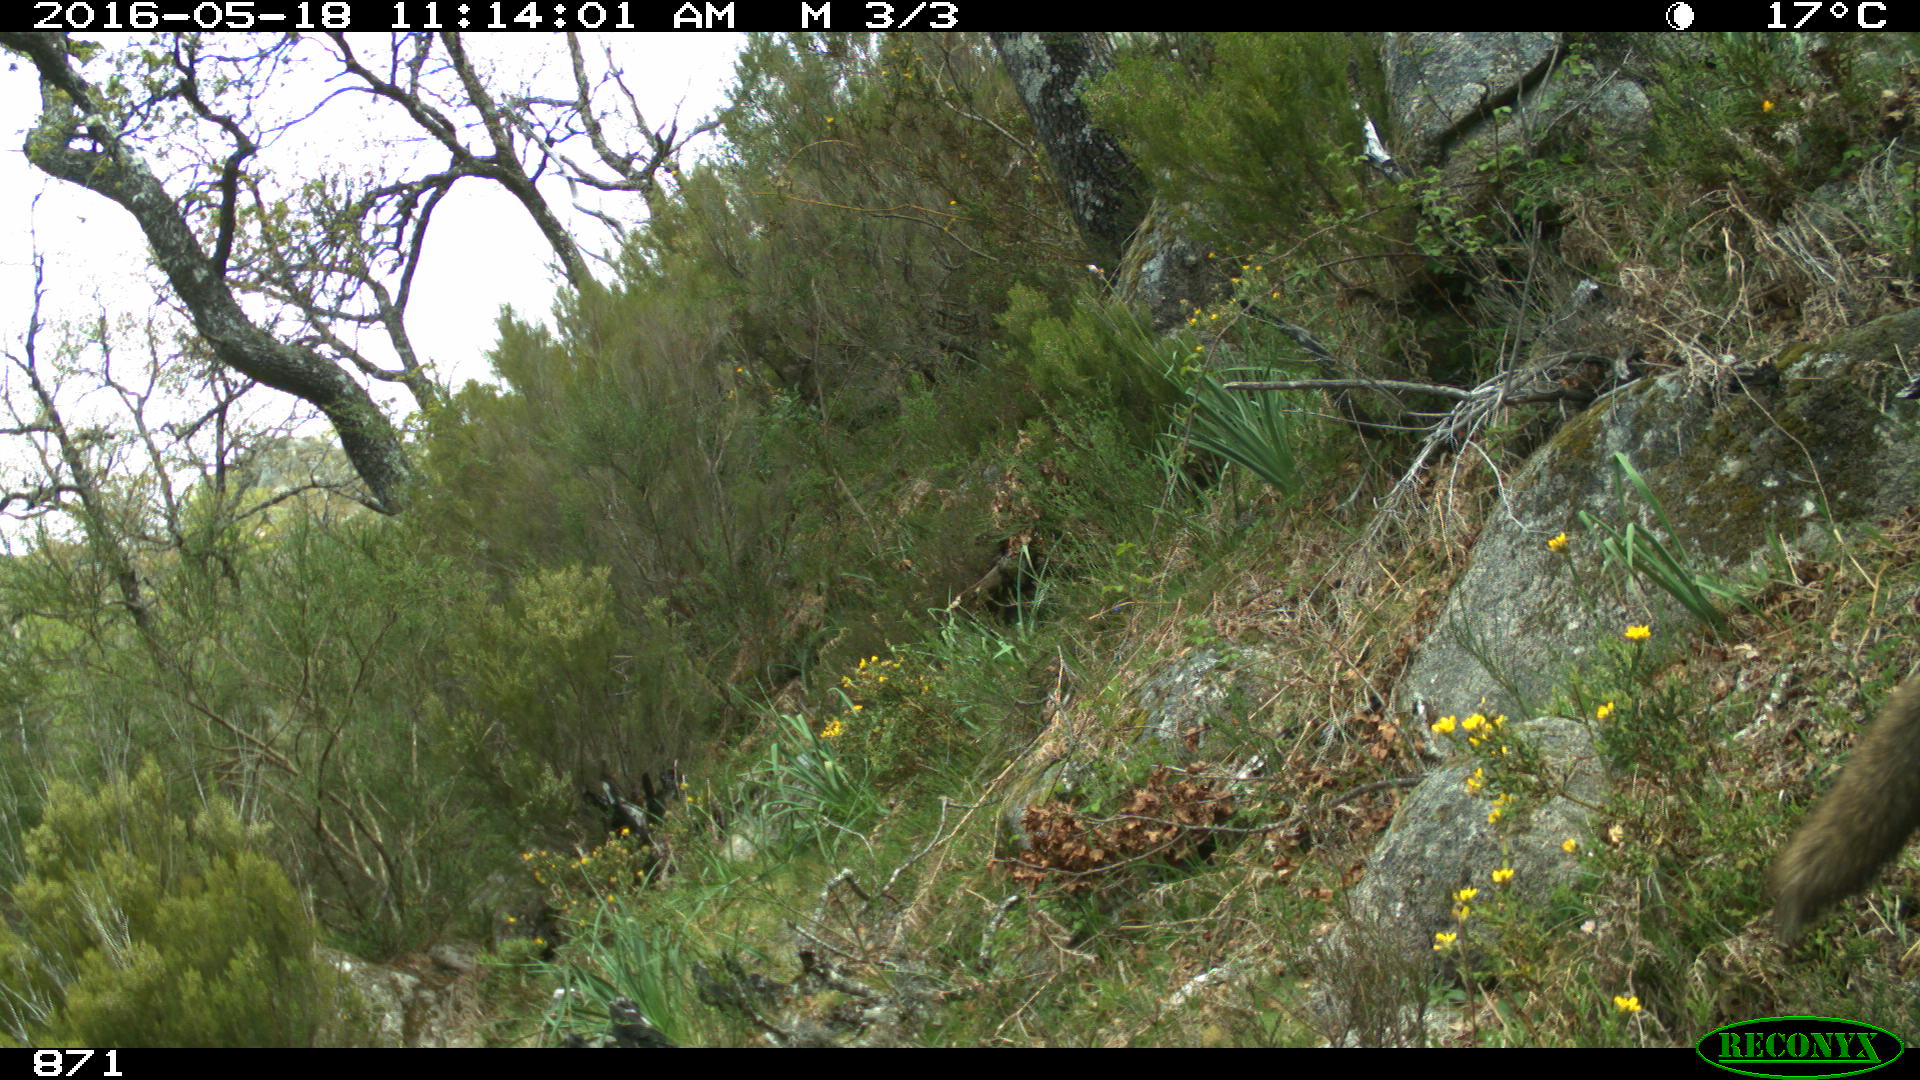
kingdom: Animalia
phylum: Chordata
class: Mammalia
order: Carnivora
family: Canidae
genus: Vulpes
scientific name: Vulpes vulpes
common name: Red fox
